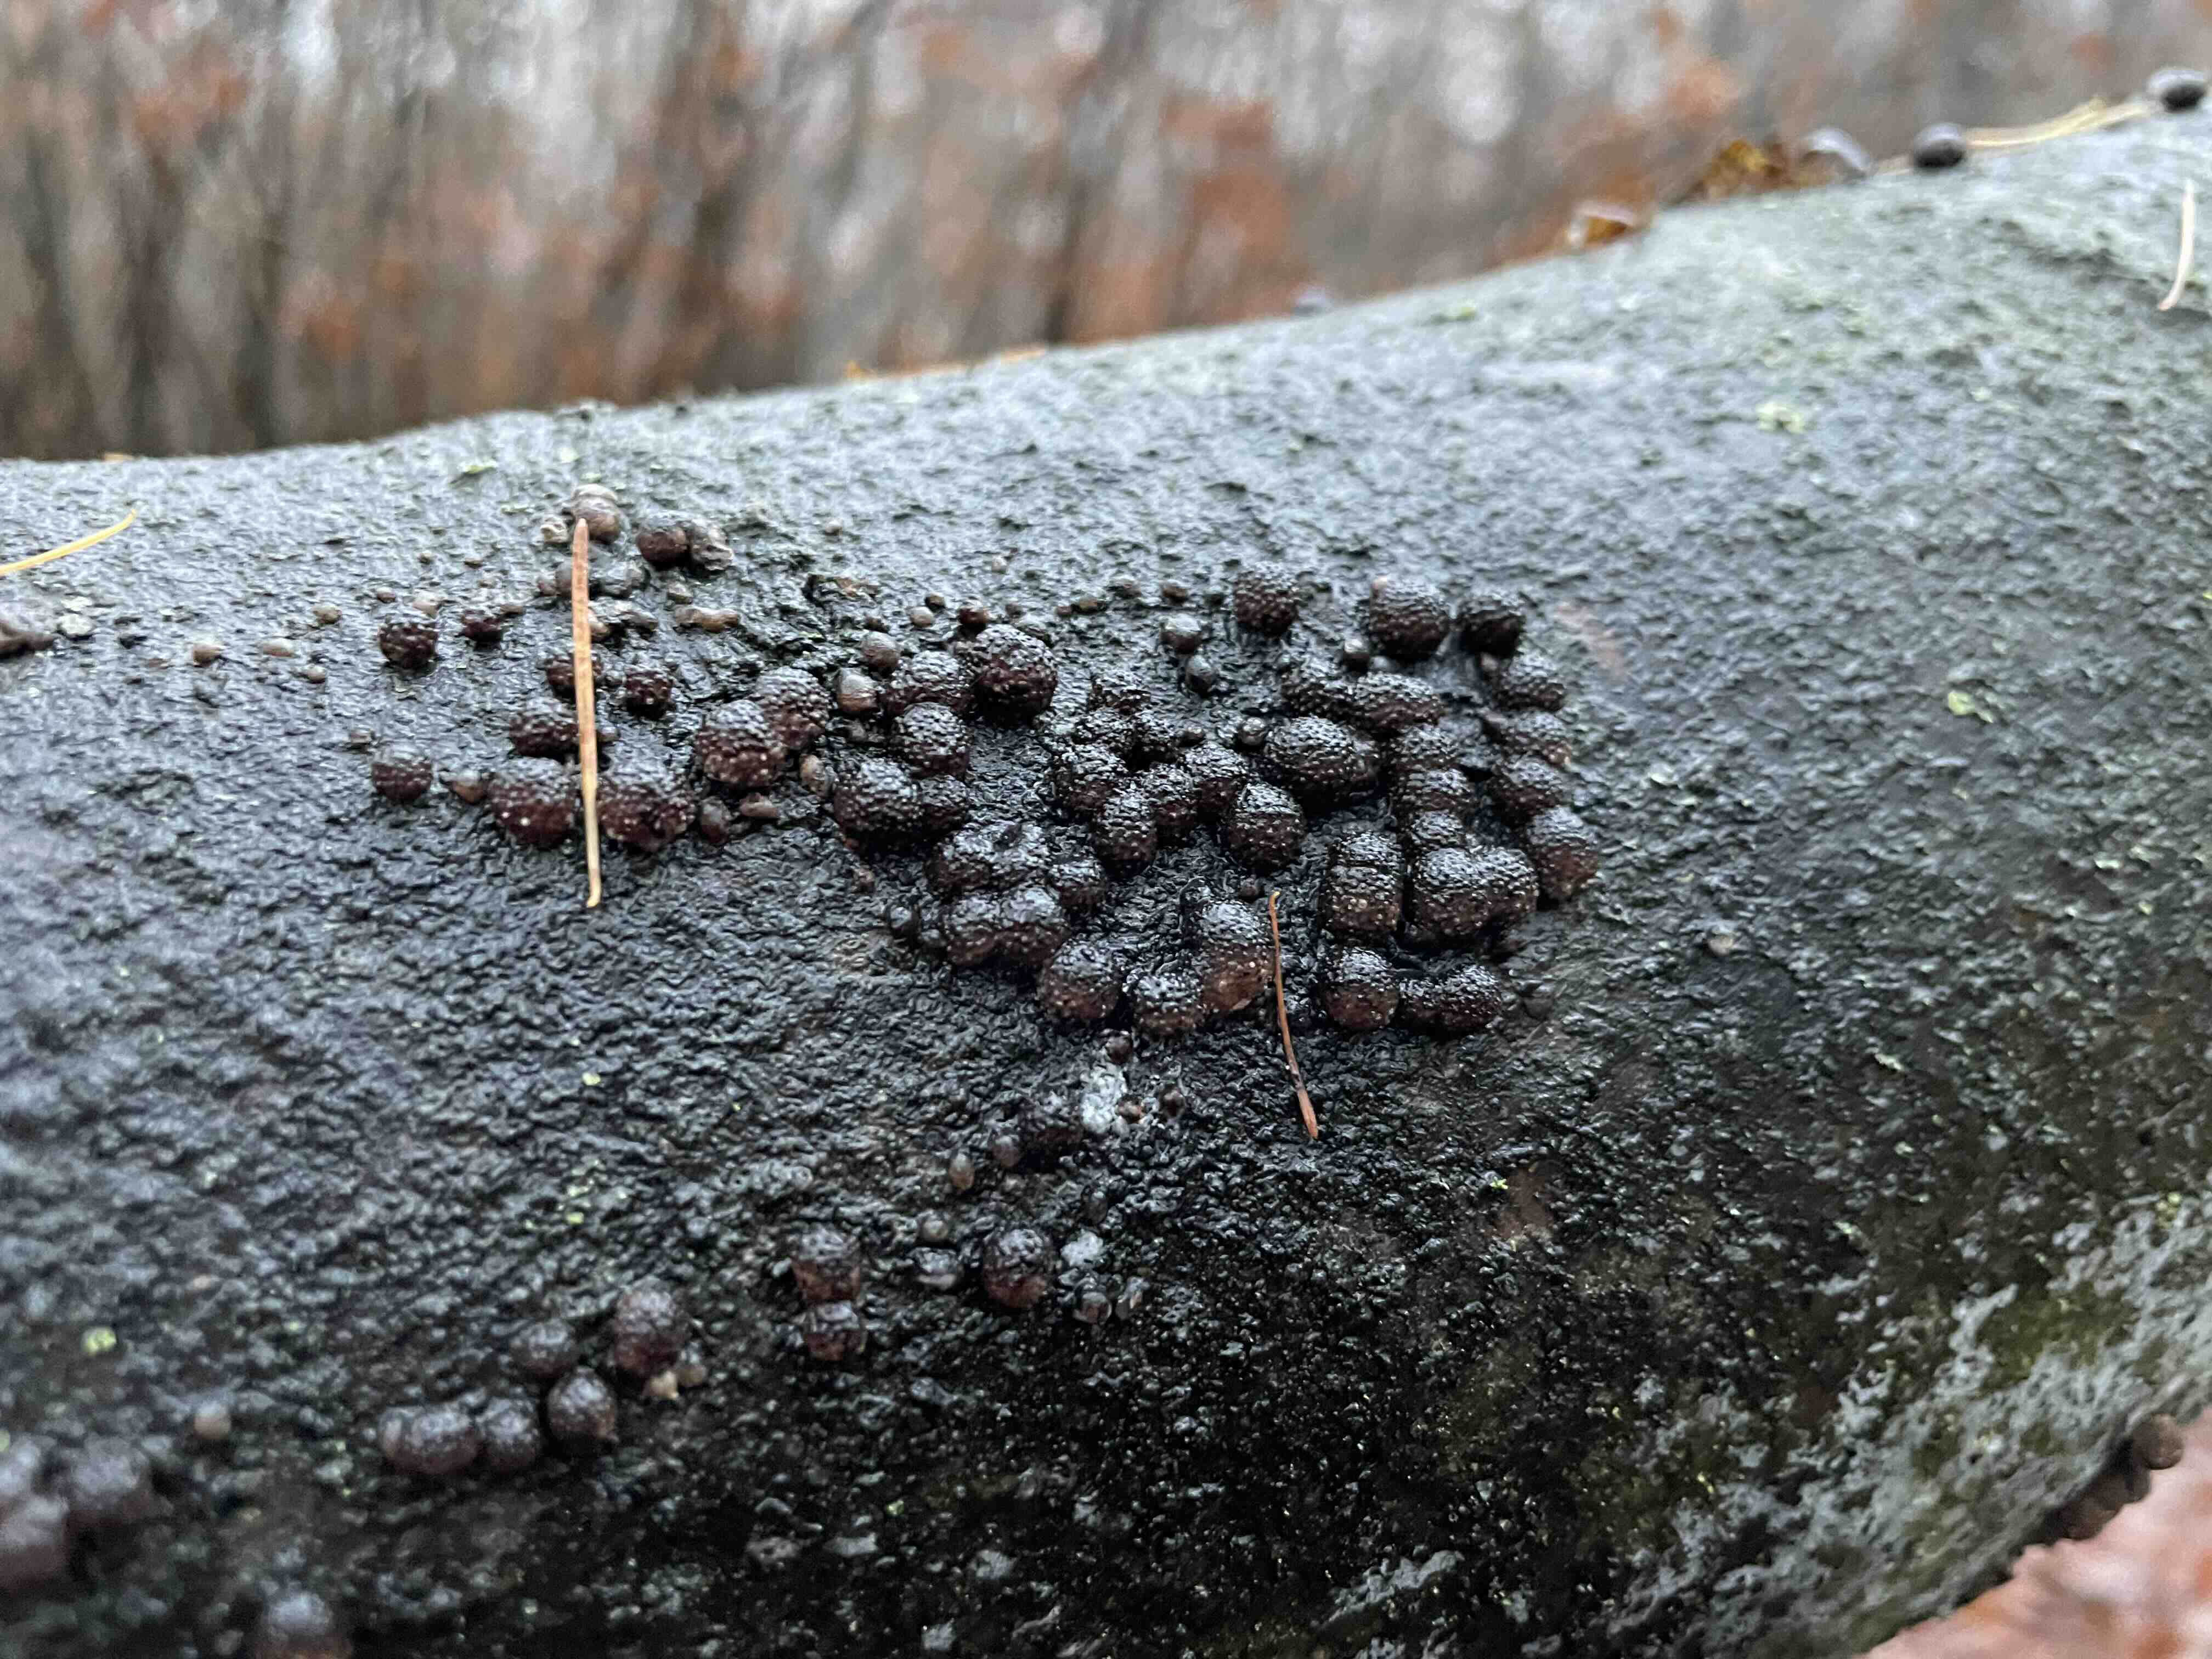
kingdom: Fungi
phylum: Ascomycota
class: Sordariomycetes
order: Xylariales
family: Hypoxylaceae
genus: Hypoxylon
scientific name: Hypoxylon fragiforme
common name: kuljordbær
